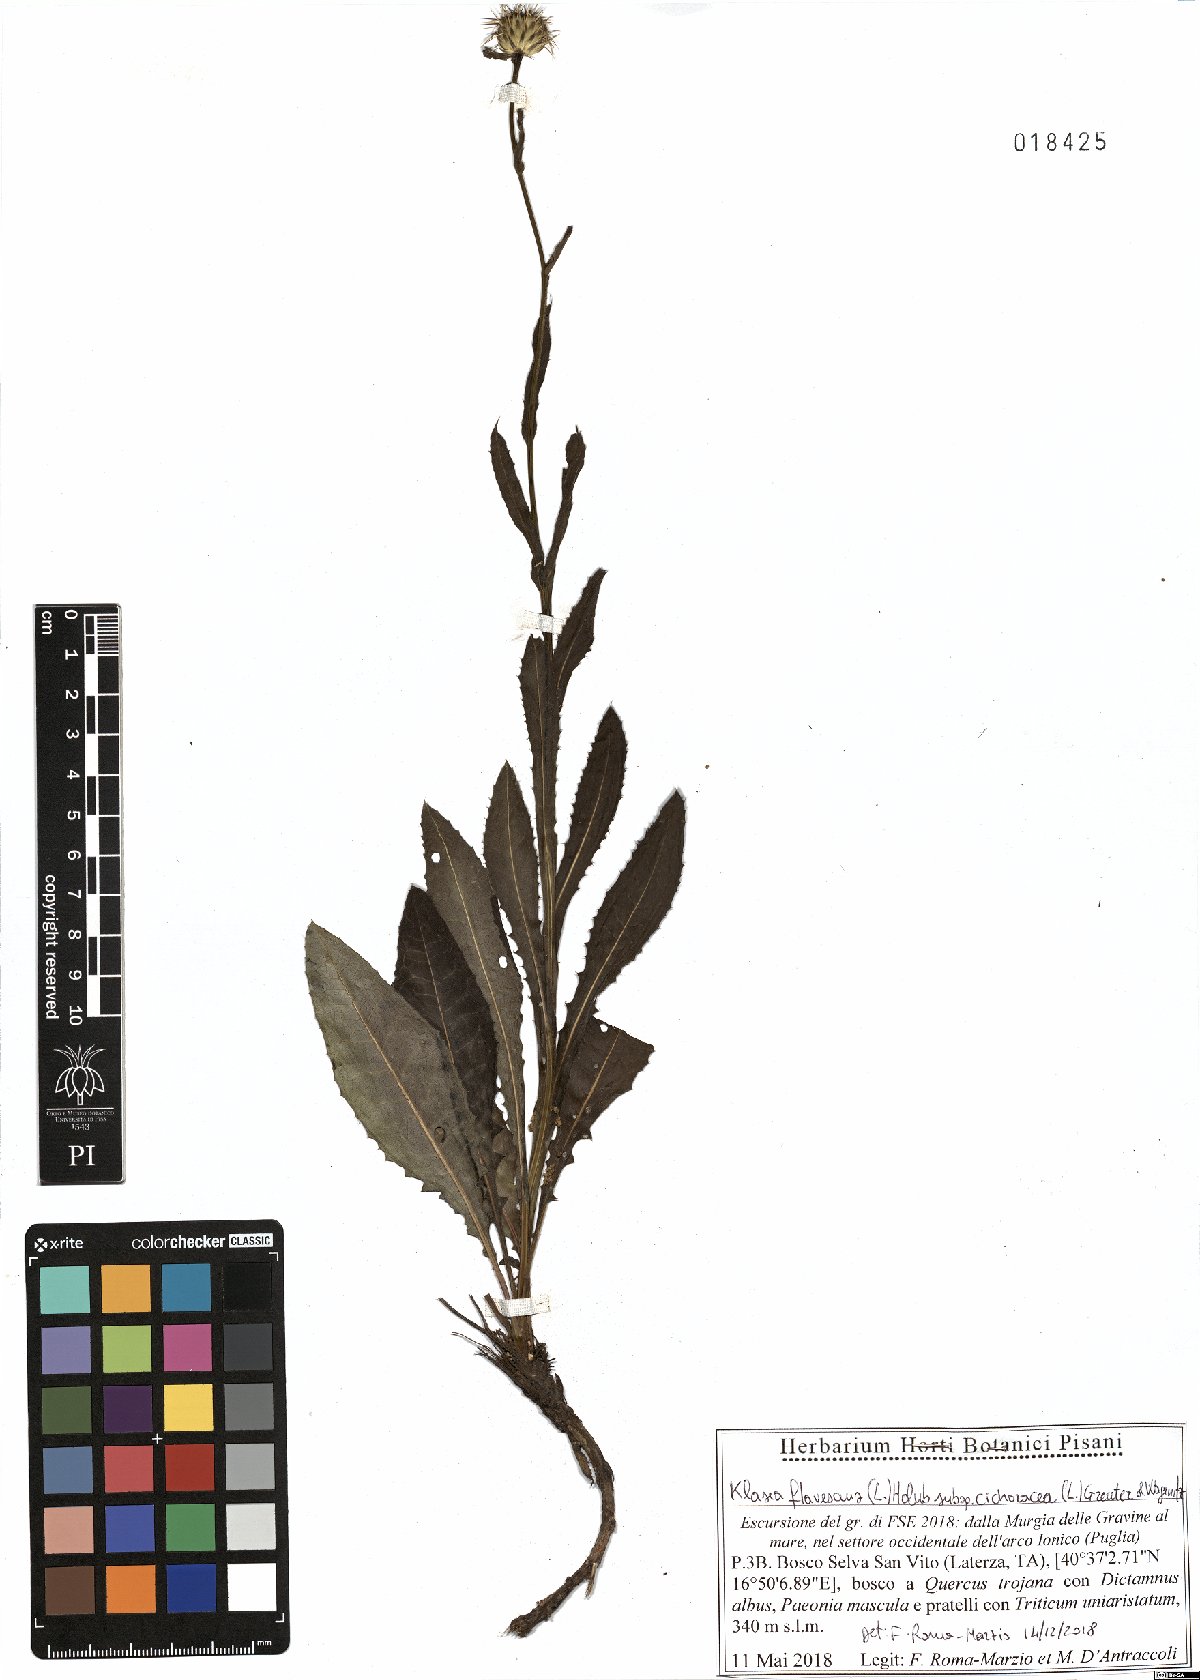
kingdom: Plantae
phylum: Tracheophyta
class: Magnoliopsida
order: Asterales
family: Asteraceae
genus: Klasea
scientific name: Klasea flavescens
